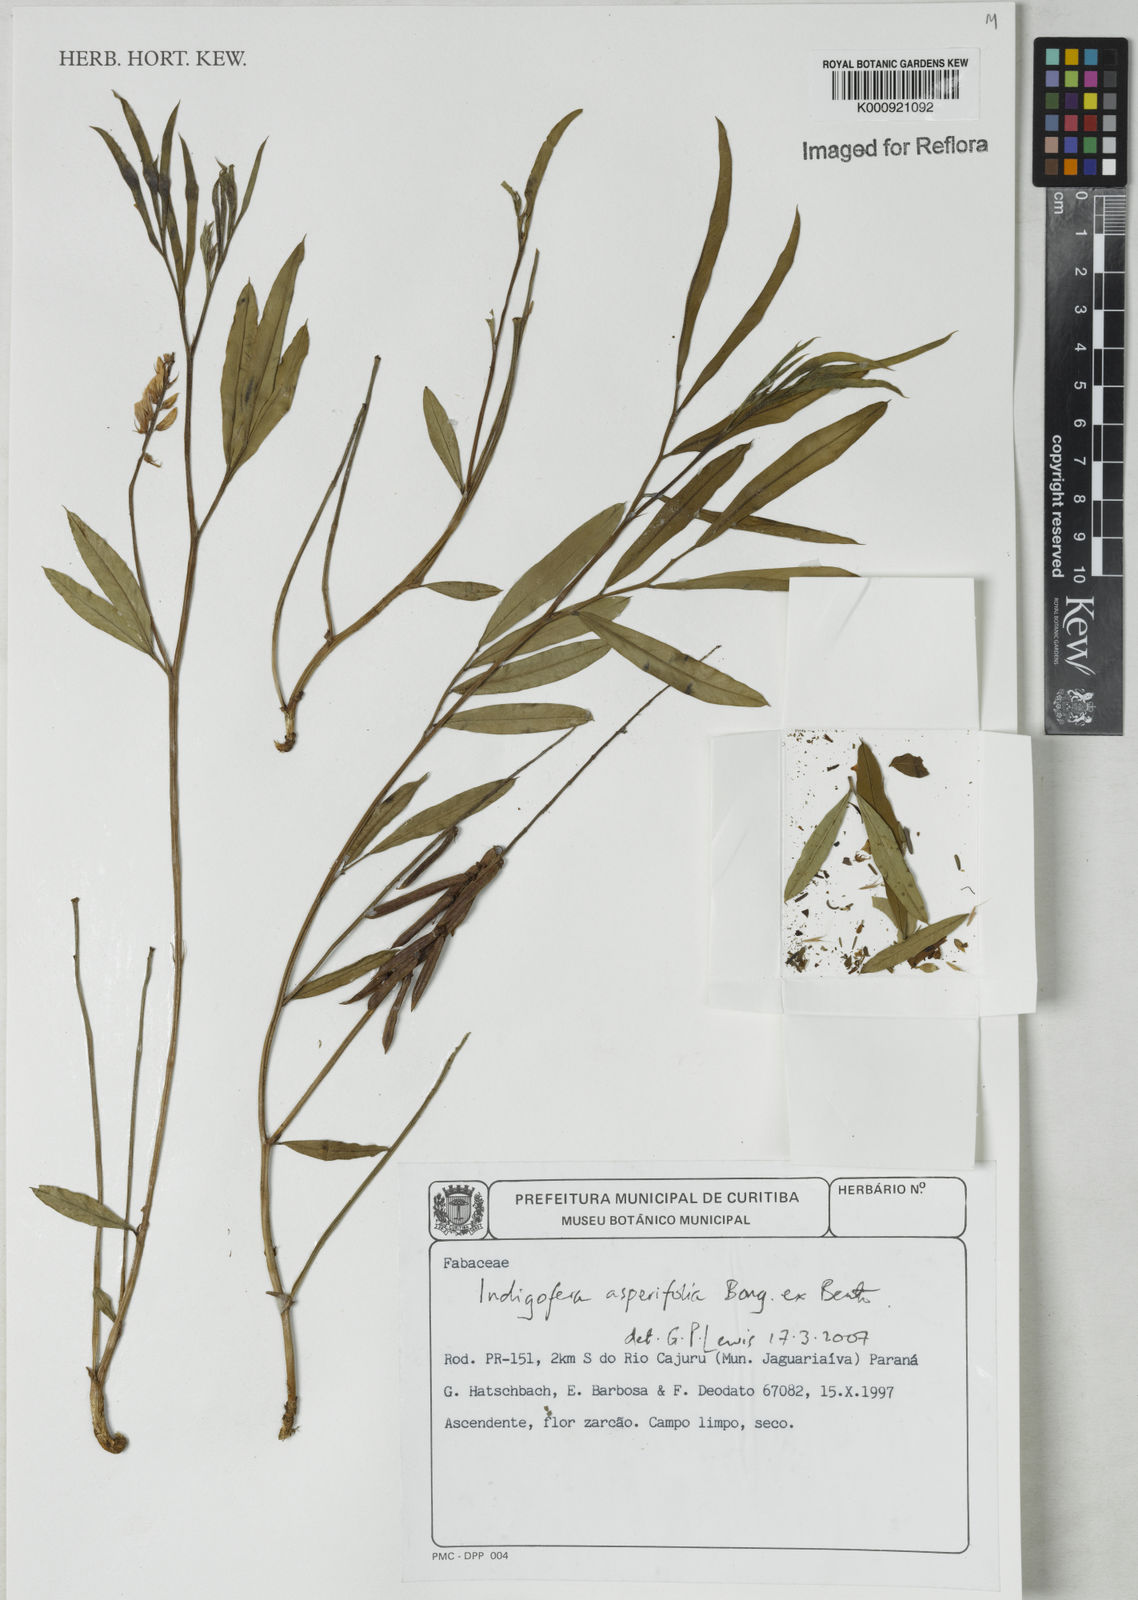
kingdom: Plantae
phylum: Tracheophyta
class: Magnoliopsida
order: Fabales
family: Fabaceae
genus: Indigofera
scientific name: Indigofera
